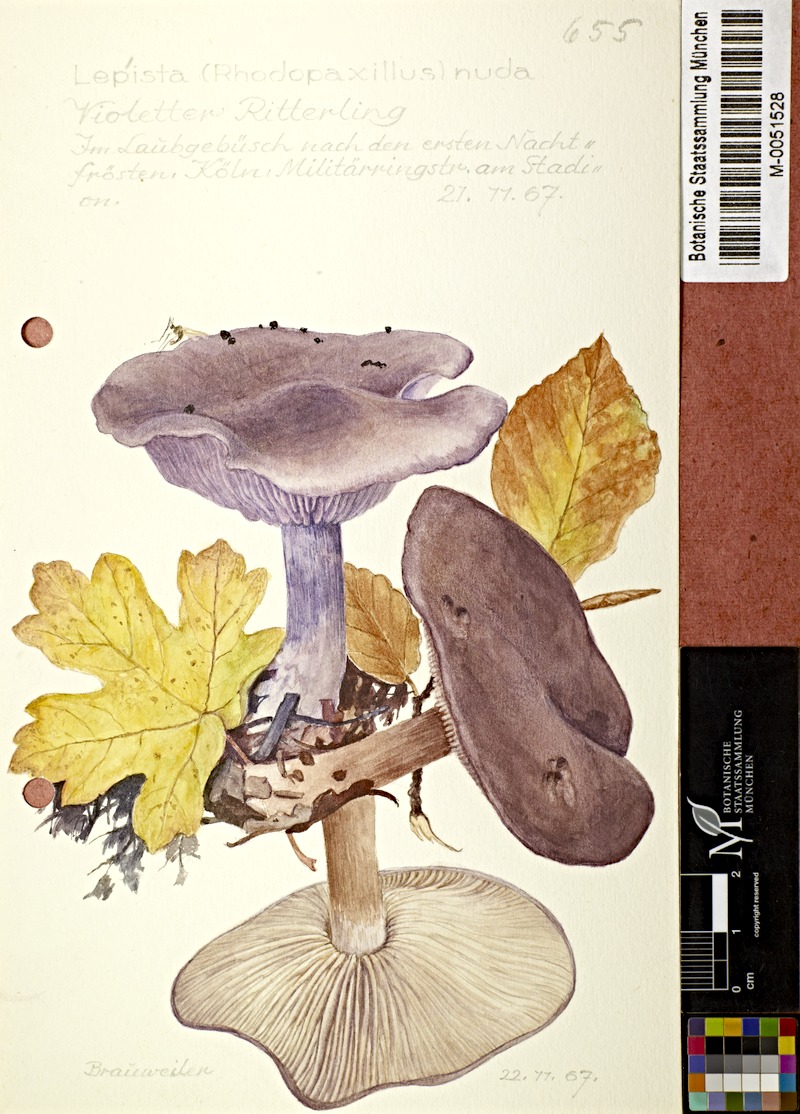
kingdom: Fungi
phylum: Basidiomycota
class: Agaricomycetes
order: Agaricales
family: Tricholomataceae
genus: Lepista
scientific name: Lepista nuda
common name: Wood blewit
